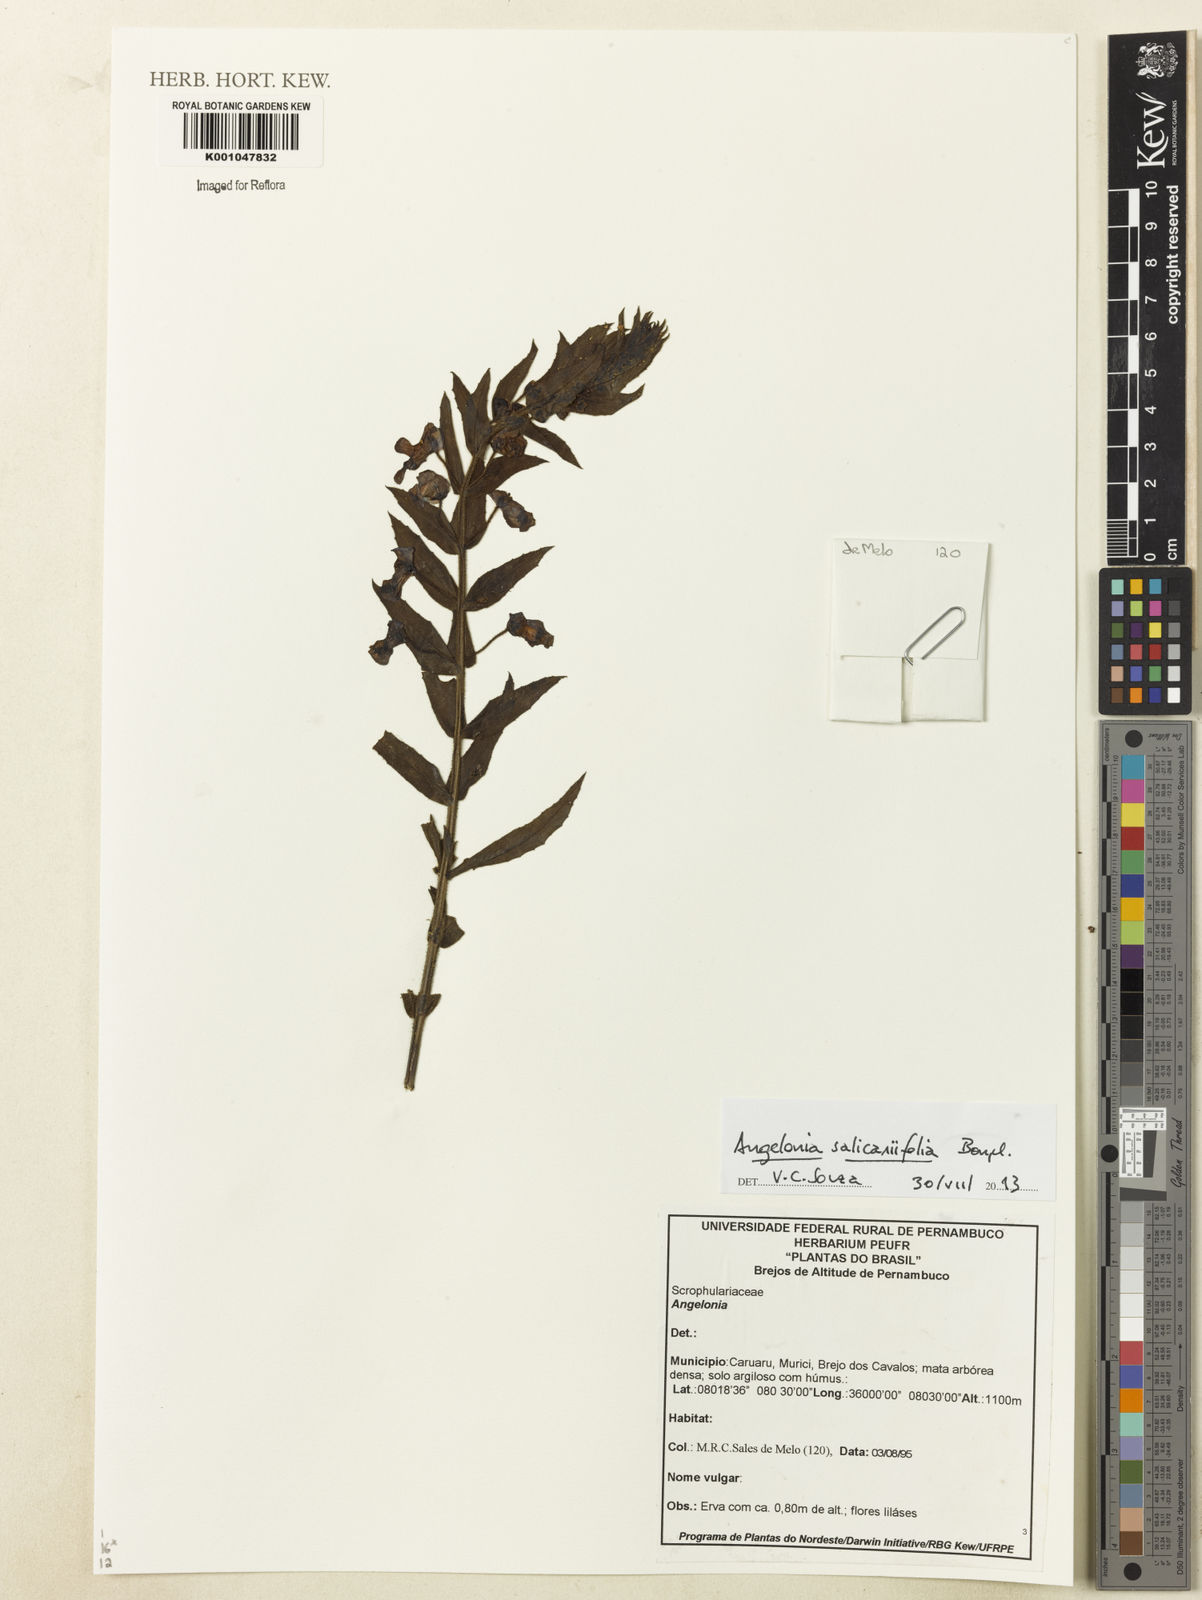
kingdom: Plantae
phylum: Tracheophyta
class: Magnoliopsida
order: Lamiales
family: Plantaginaceae
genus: Angelonia
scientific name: Angelonia salicariifolia
